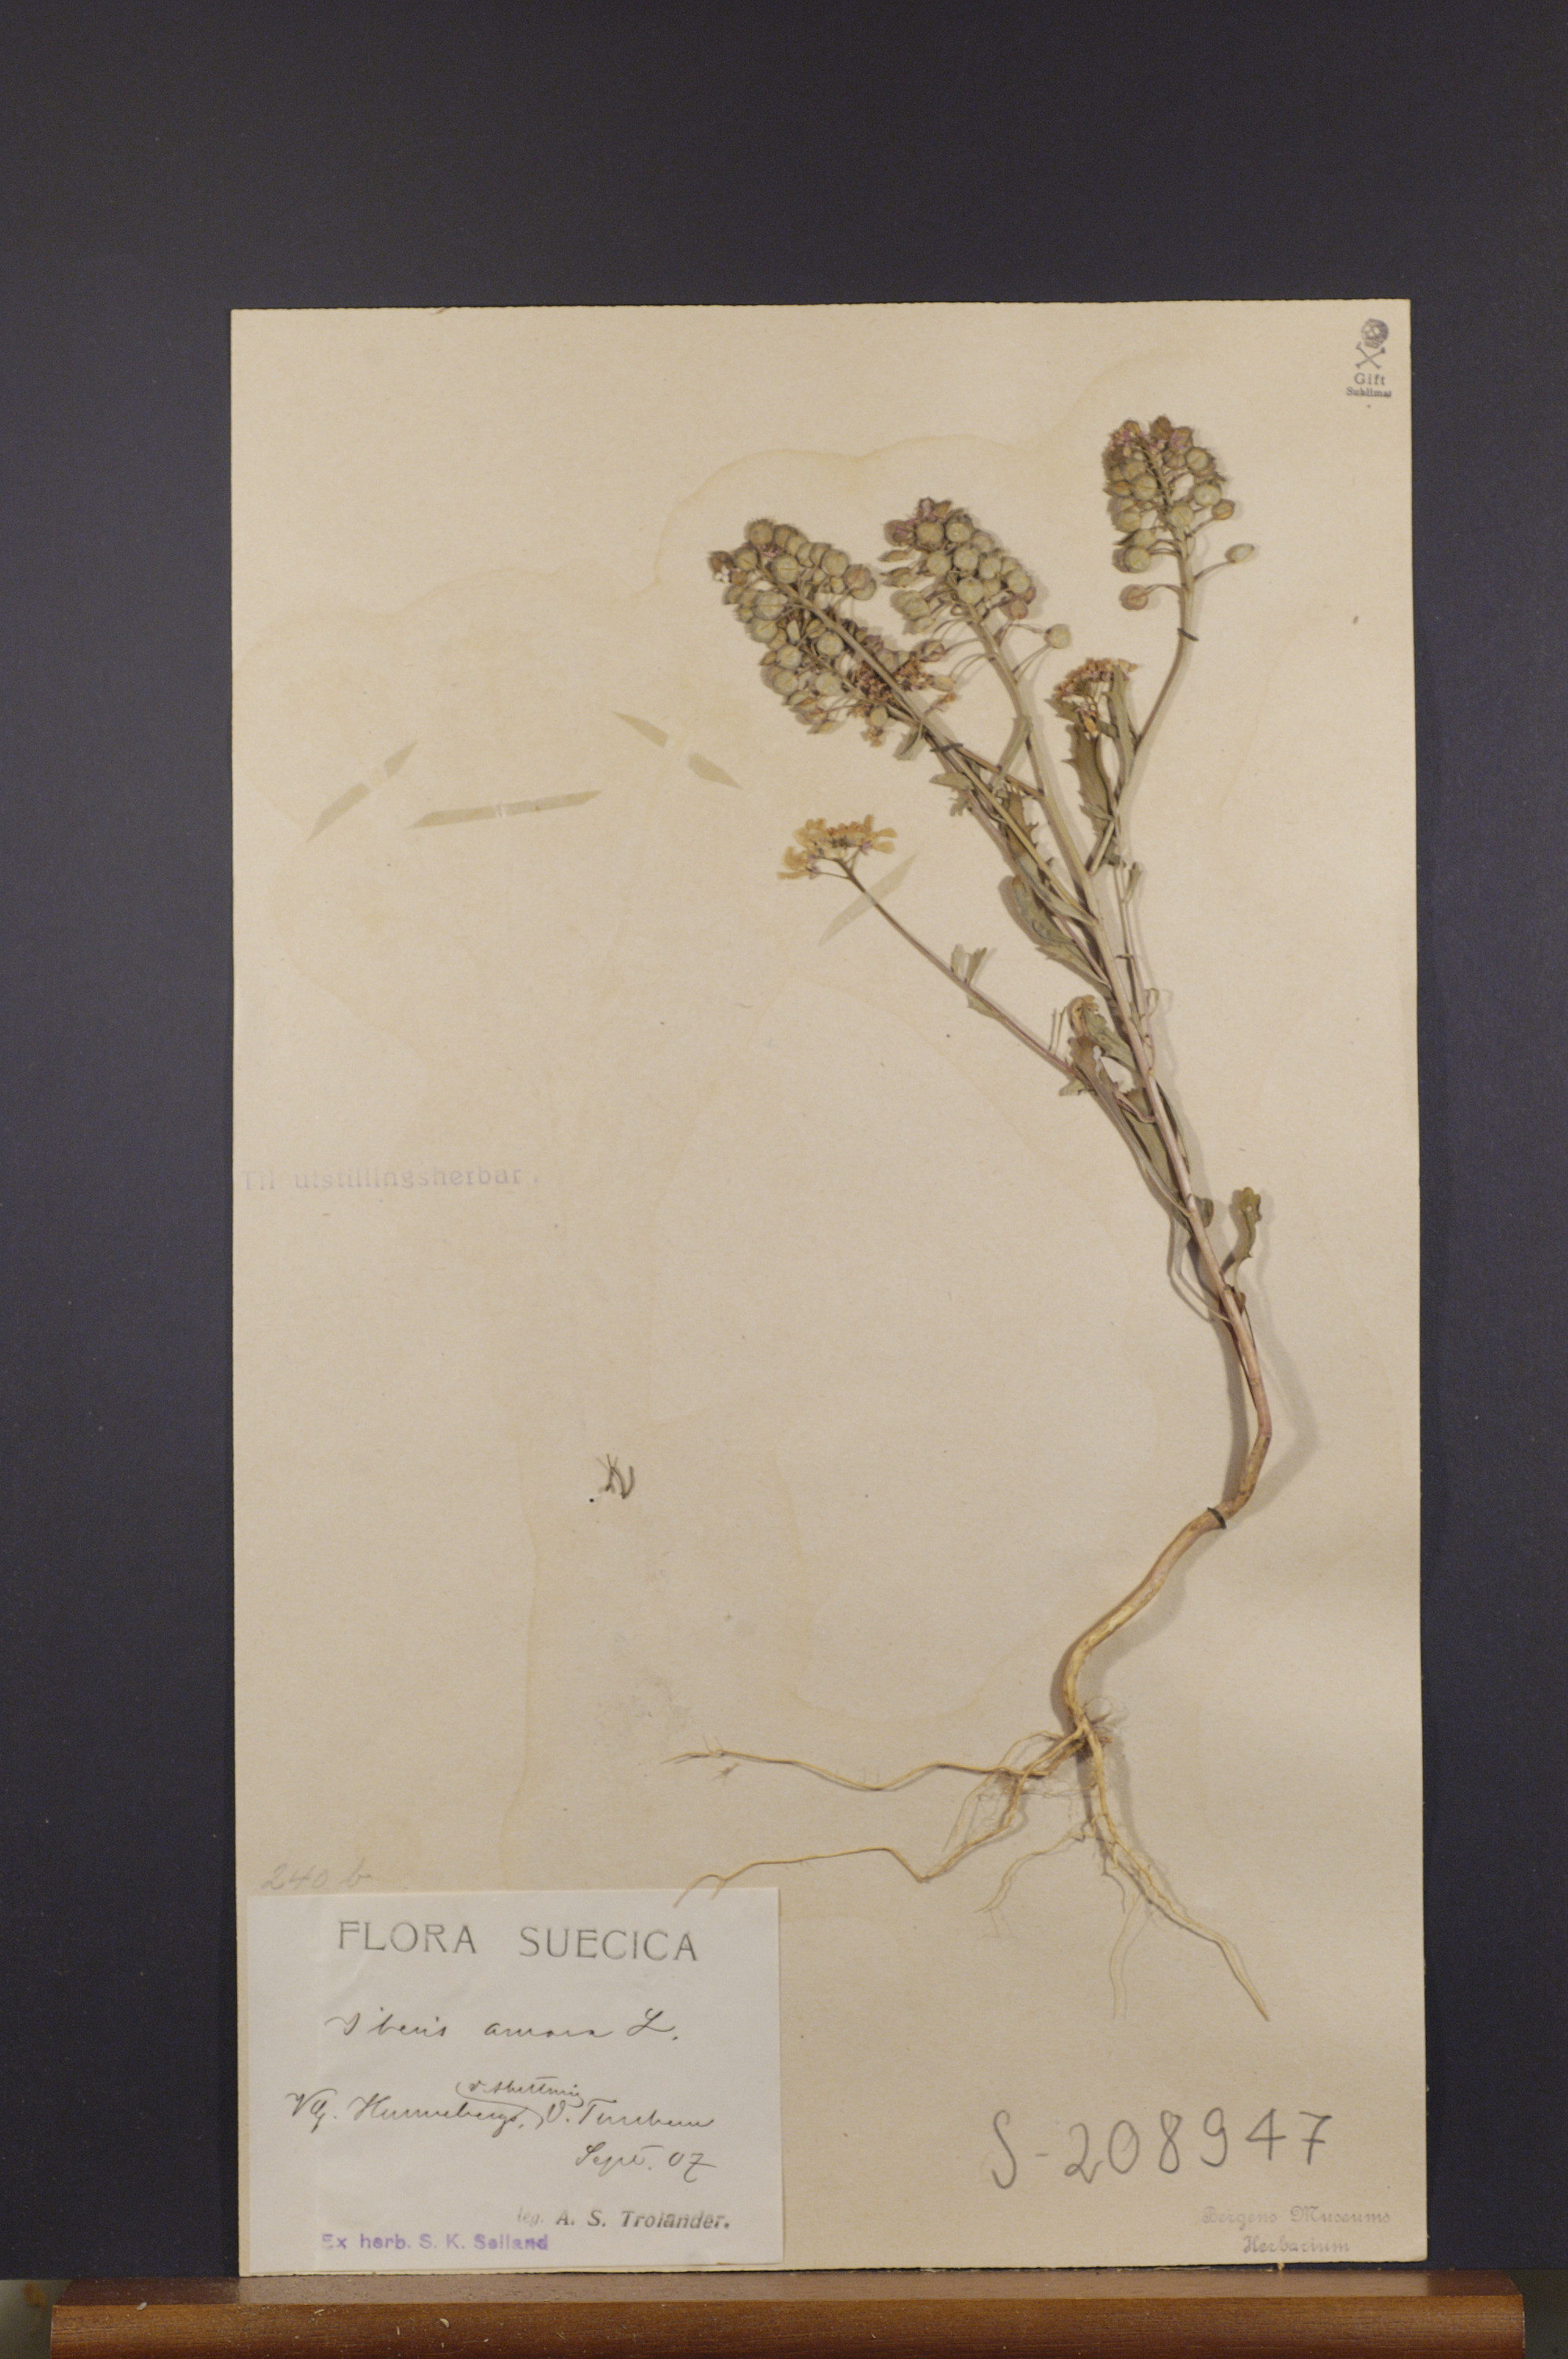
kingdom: Plantae
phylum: Tracheophyta
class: Magnoliopsida
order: Brassicales
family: Brassicaceae
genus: Iberis
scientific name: Iberis amara
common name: Annual candytuft
